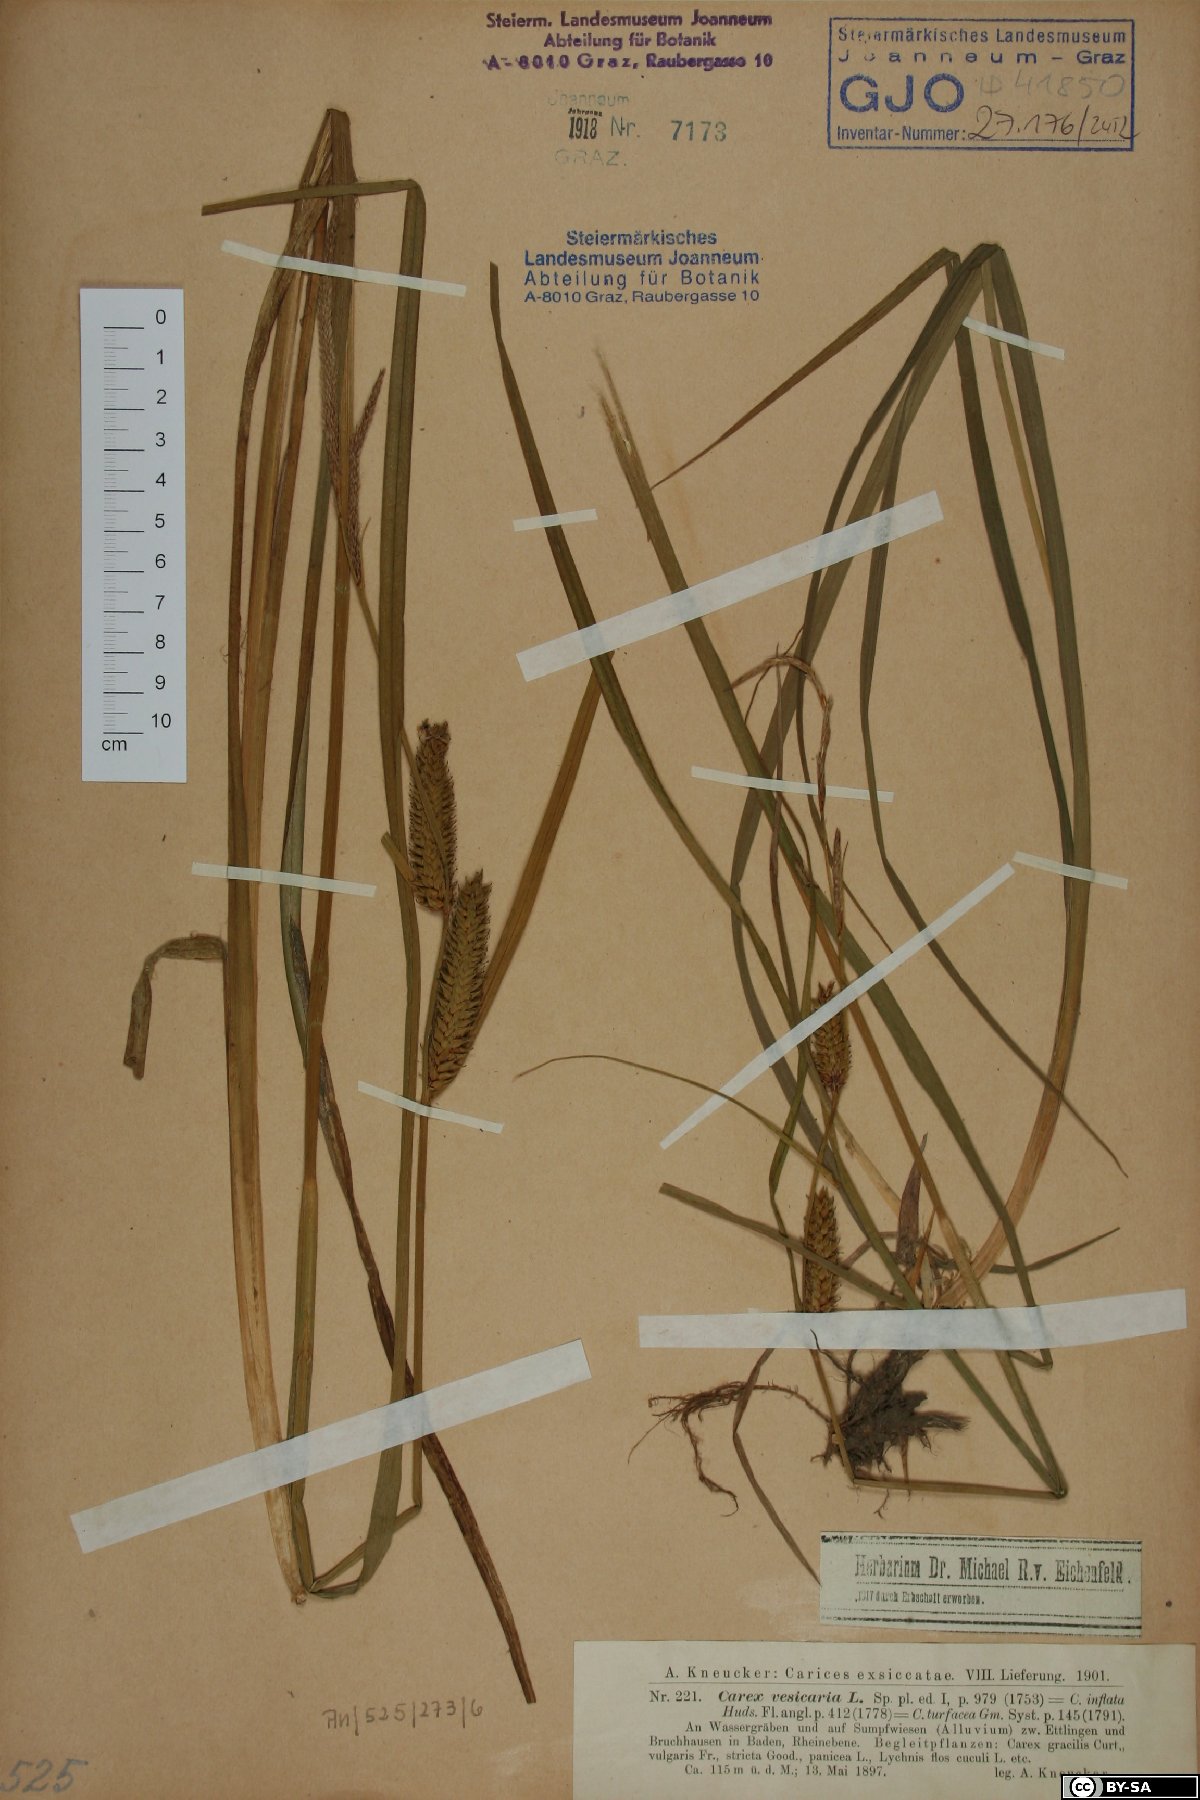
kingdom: Plantae
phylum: Tracheophyta
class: Liliopsida
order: Poales
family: Cyperaceae
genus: Carex
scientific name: Carex vesicaria
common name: Bladder-sedge
